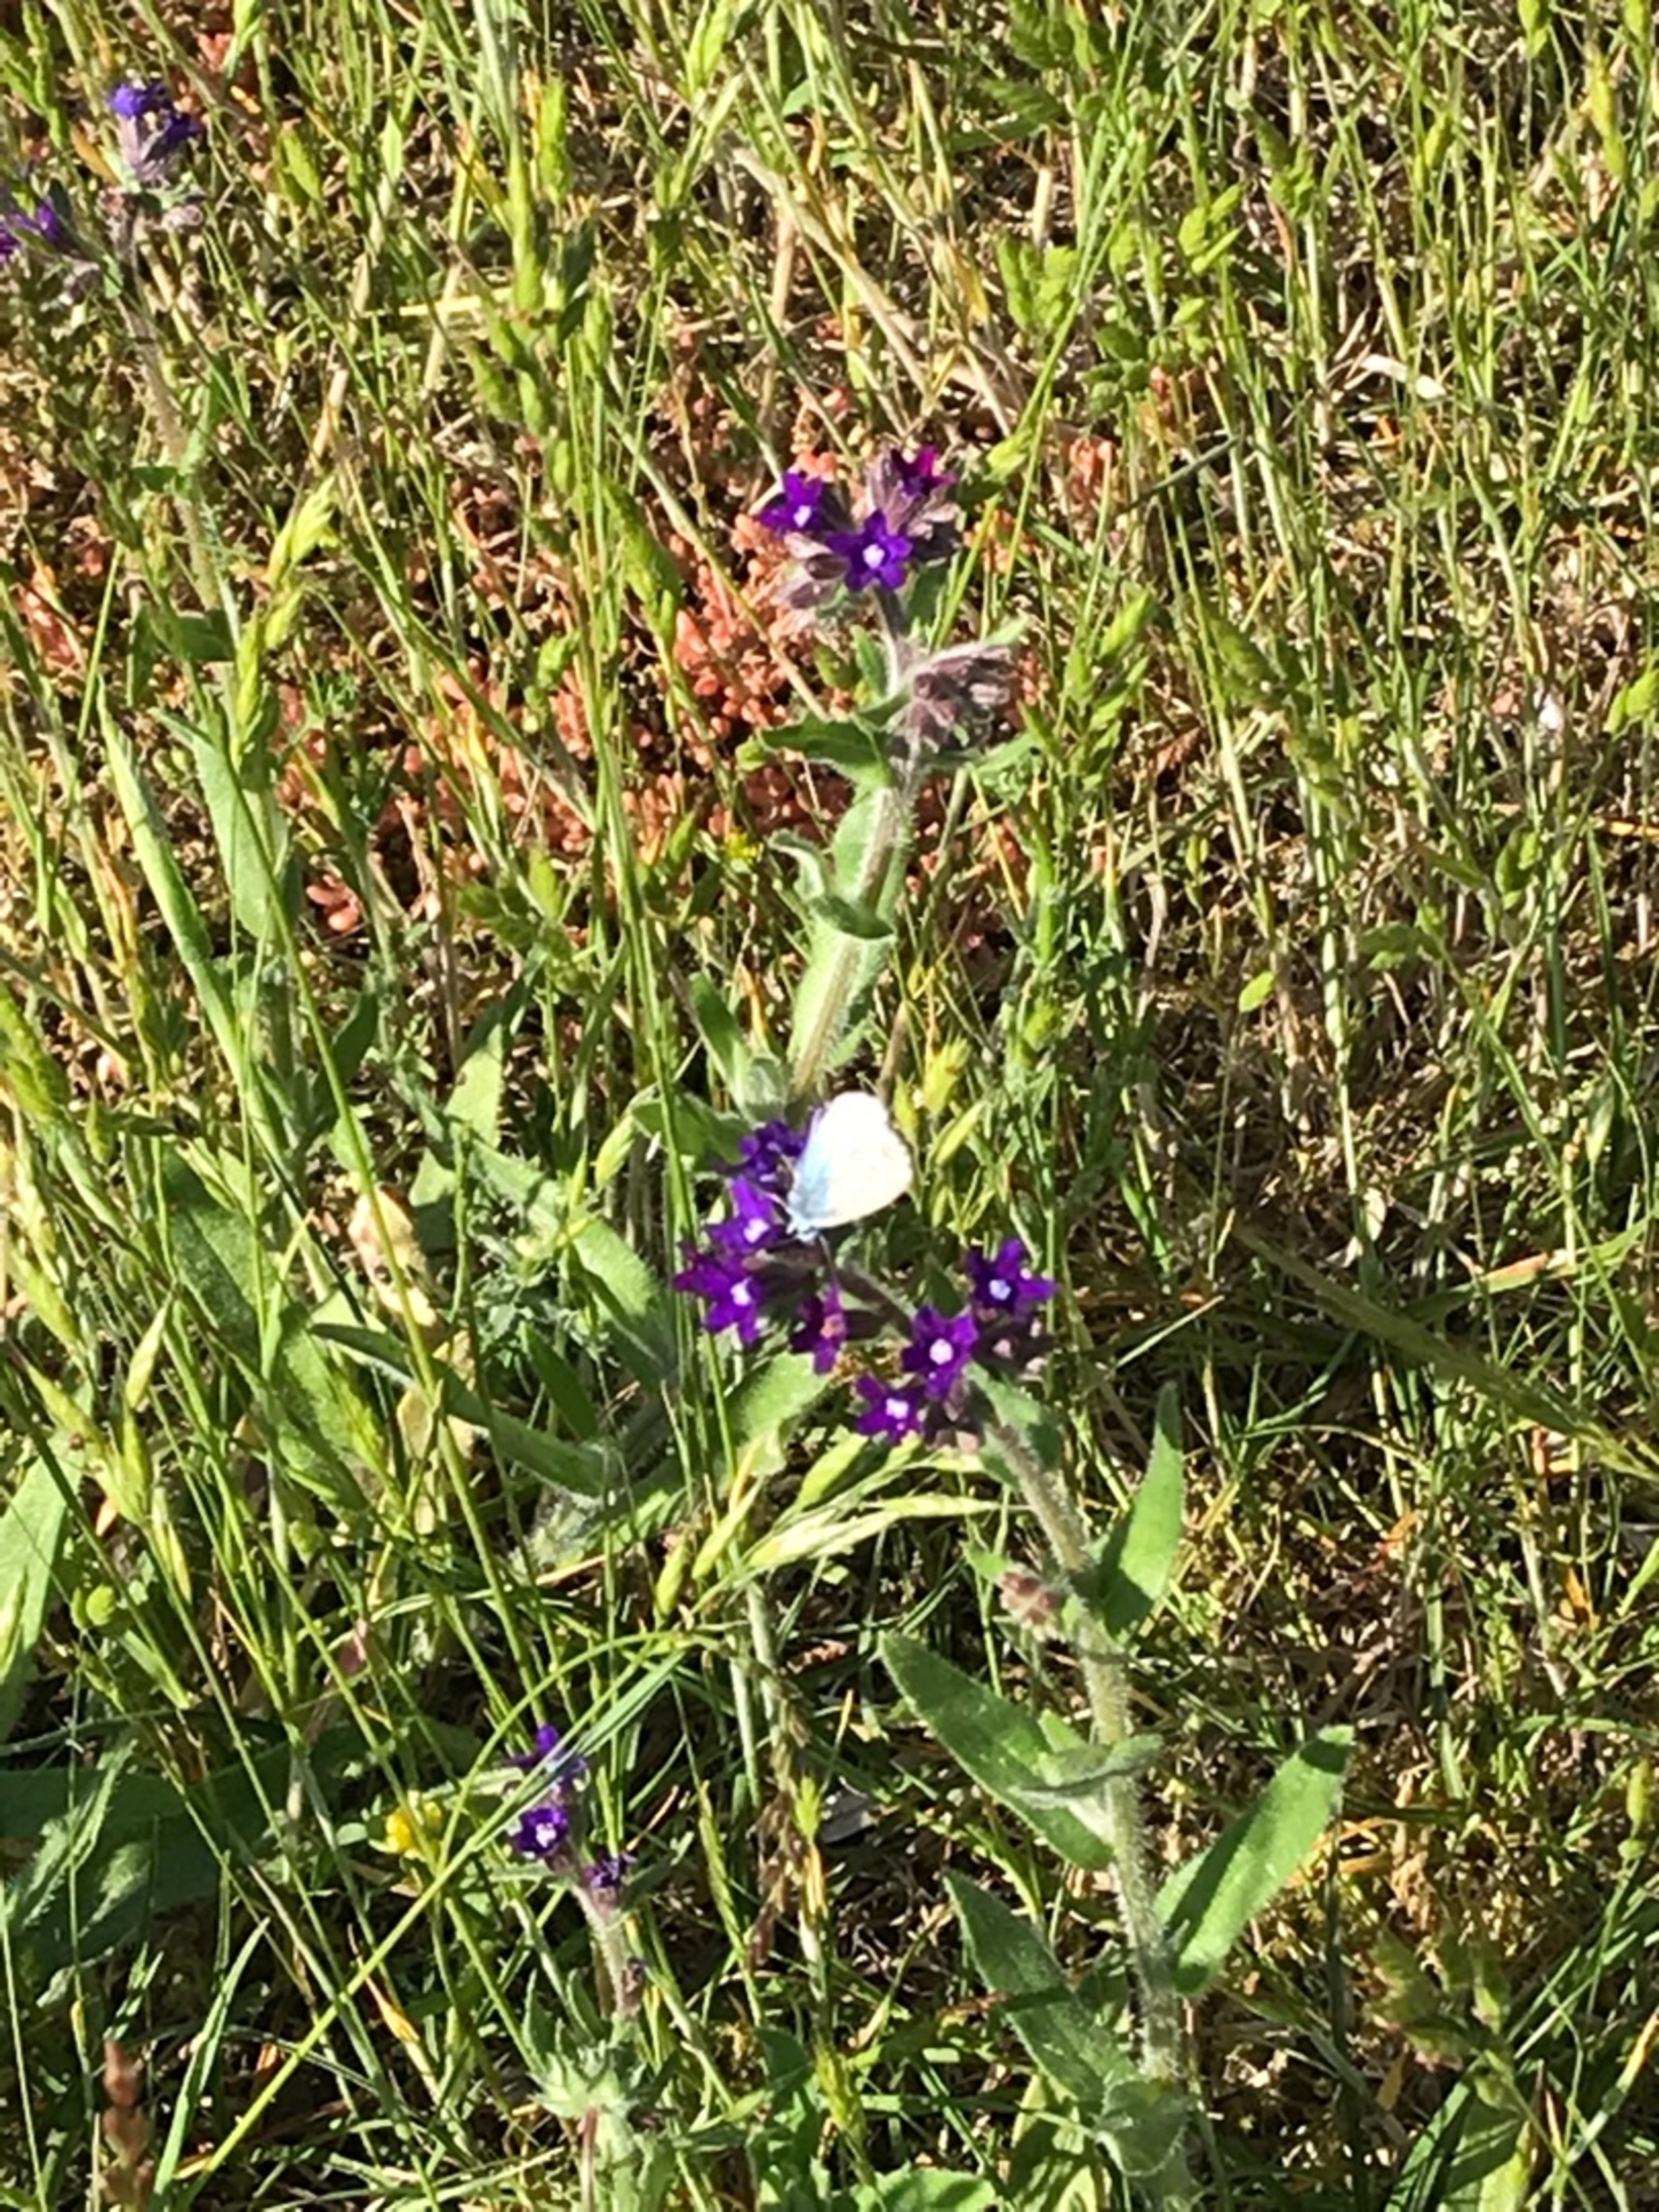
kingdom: Animalia
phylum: Arthropoda
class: Insecta
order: Lepidoptera
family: Lycaenidae
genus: Polyommatus
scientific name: Polyommatus icarus
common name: Almindelig blåfugl
